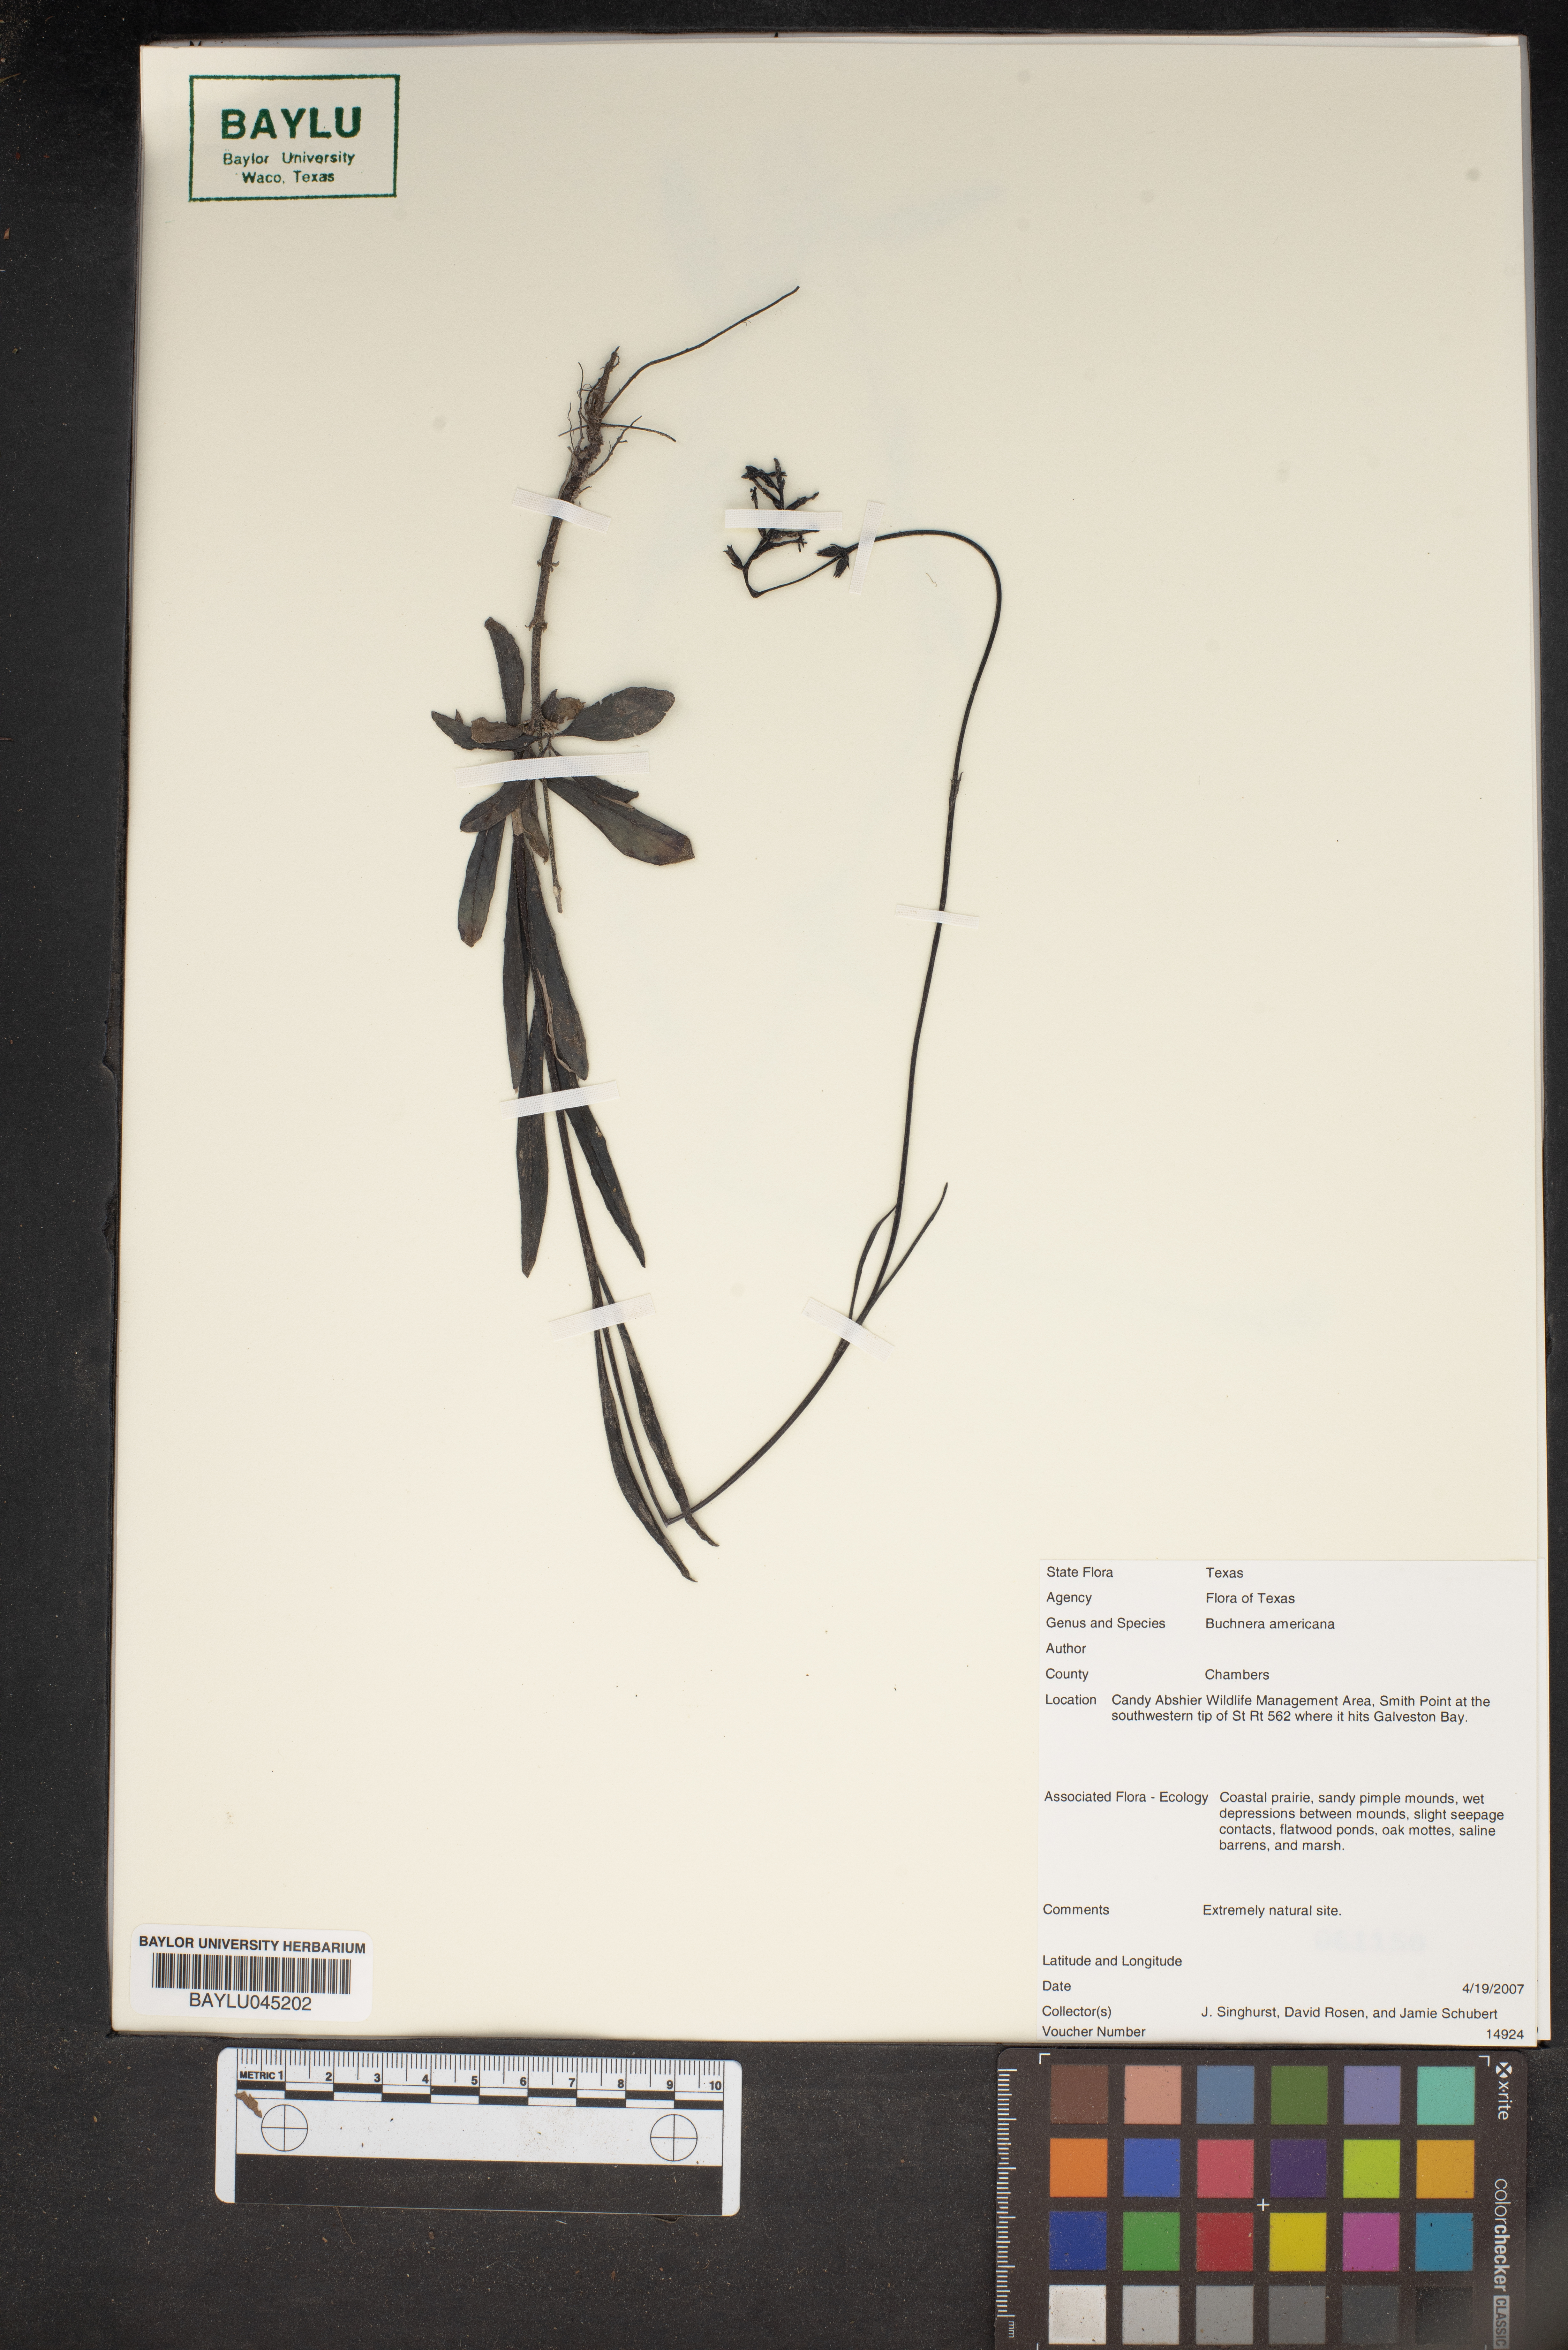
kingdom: Plantae
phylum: Tracheophyta
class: Magnoliopsida
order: Lamiales
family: Orobanchaceae
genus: Buchnera
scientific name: Buchnera americana
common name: American bluehearts
